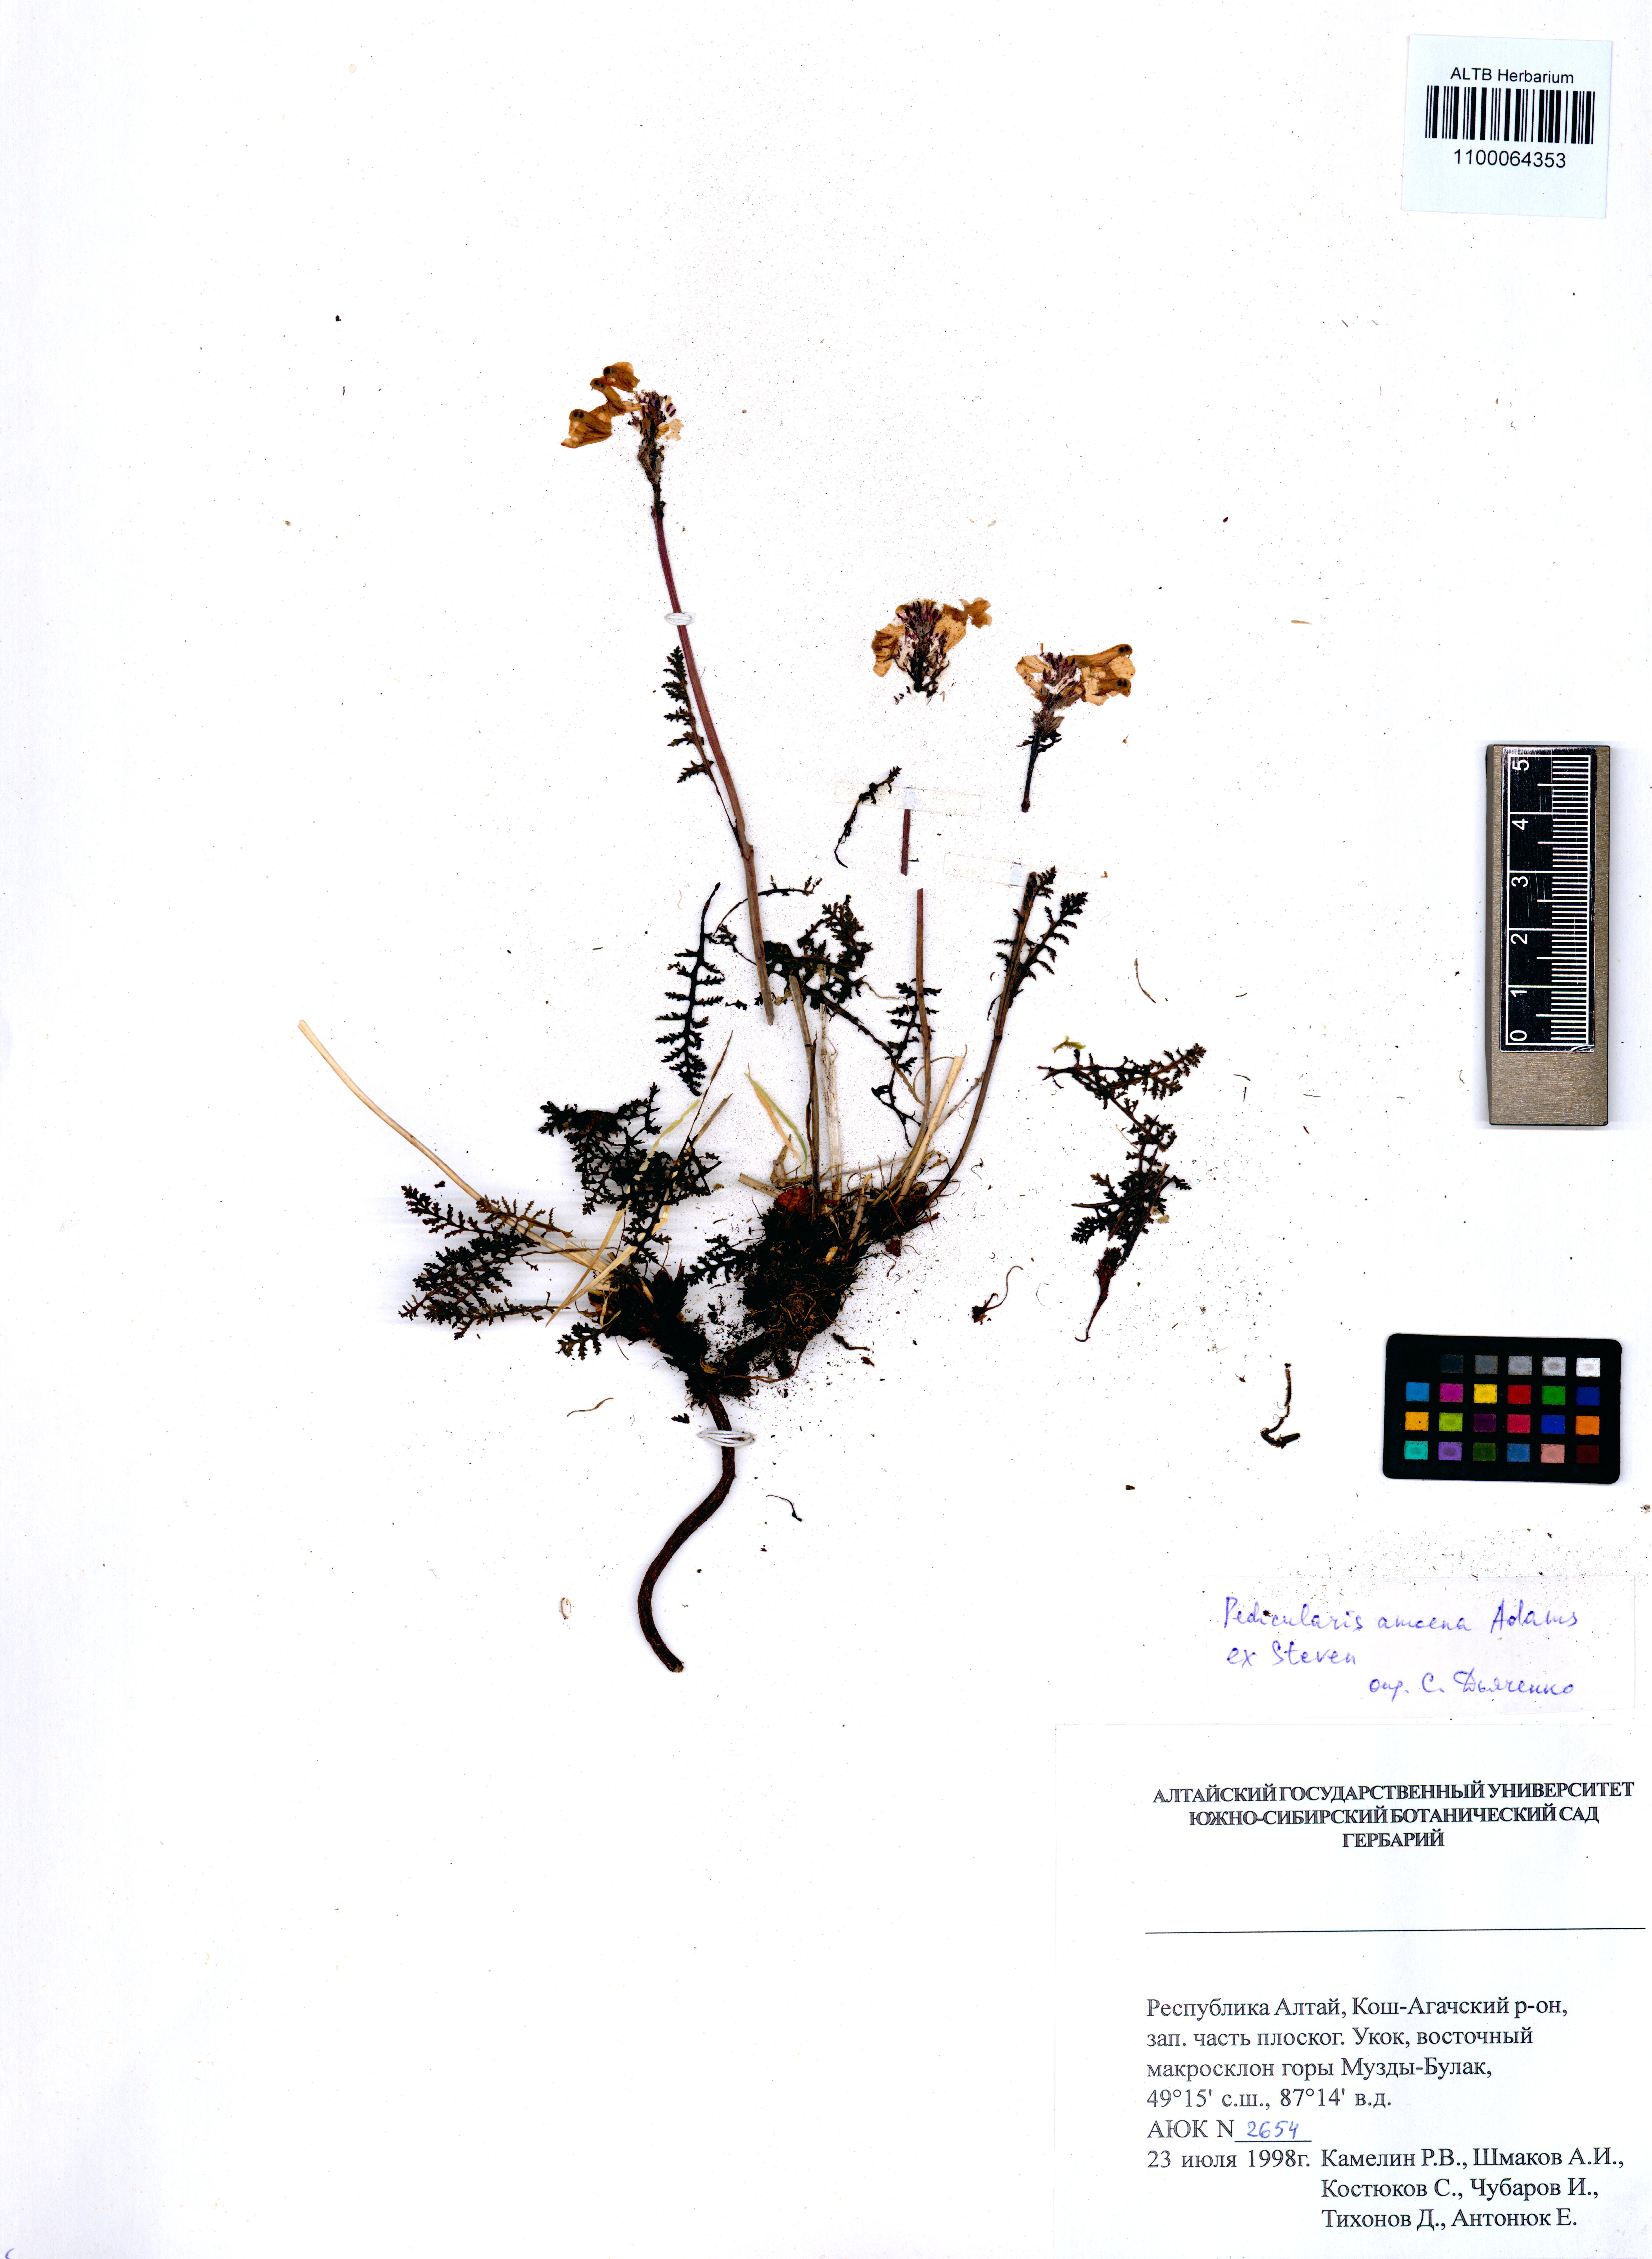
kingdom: Plantae
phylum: Tracheophyta
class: Magnoliopsida
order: Lamiales
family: Orobanchaceae
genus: Pedicularis
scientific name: Pedicularis amoena
